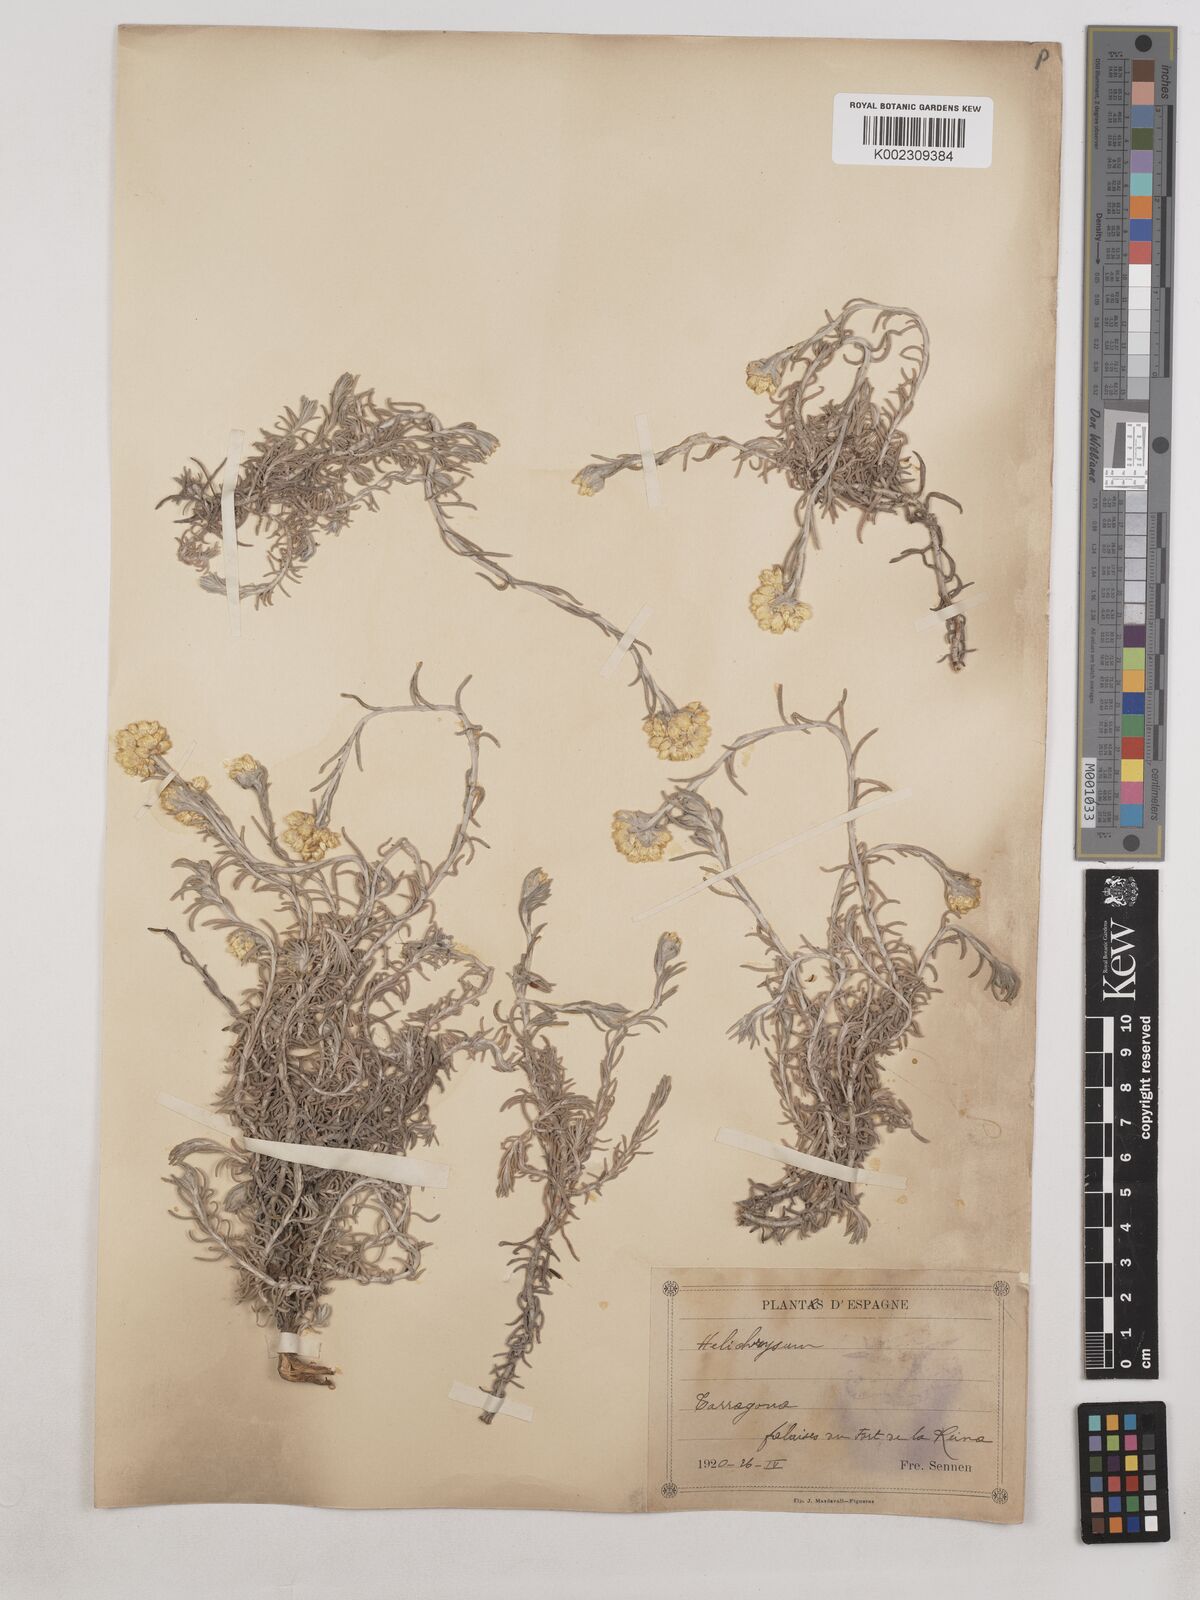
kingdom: Plantae
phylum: Tracheophyta
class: Magnoliopsida
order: Asterales
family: Asteraceae
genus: Helichrysum
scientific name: Helichrysum
